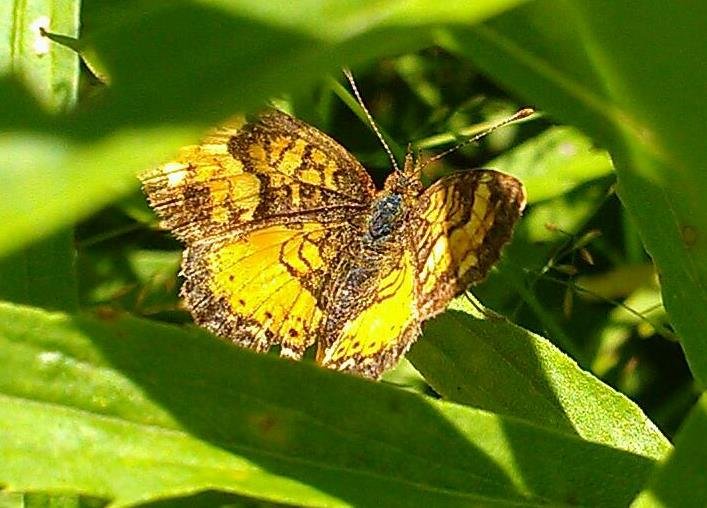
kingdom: Animalia
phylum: Arthropoda
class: Insecta
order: Lepidoptera
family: Nymphalidae
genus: Phyciodes
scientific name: Phyciodes tharos
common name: Northern Crescent
